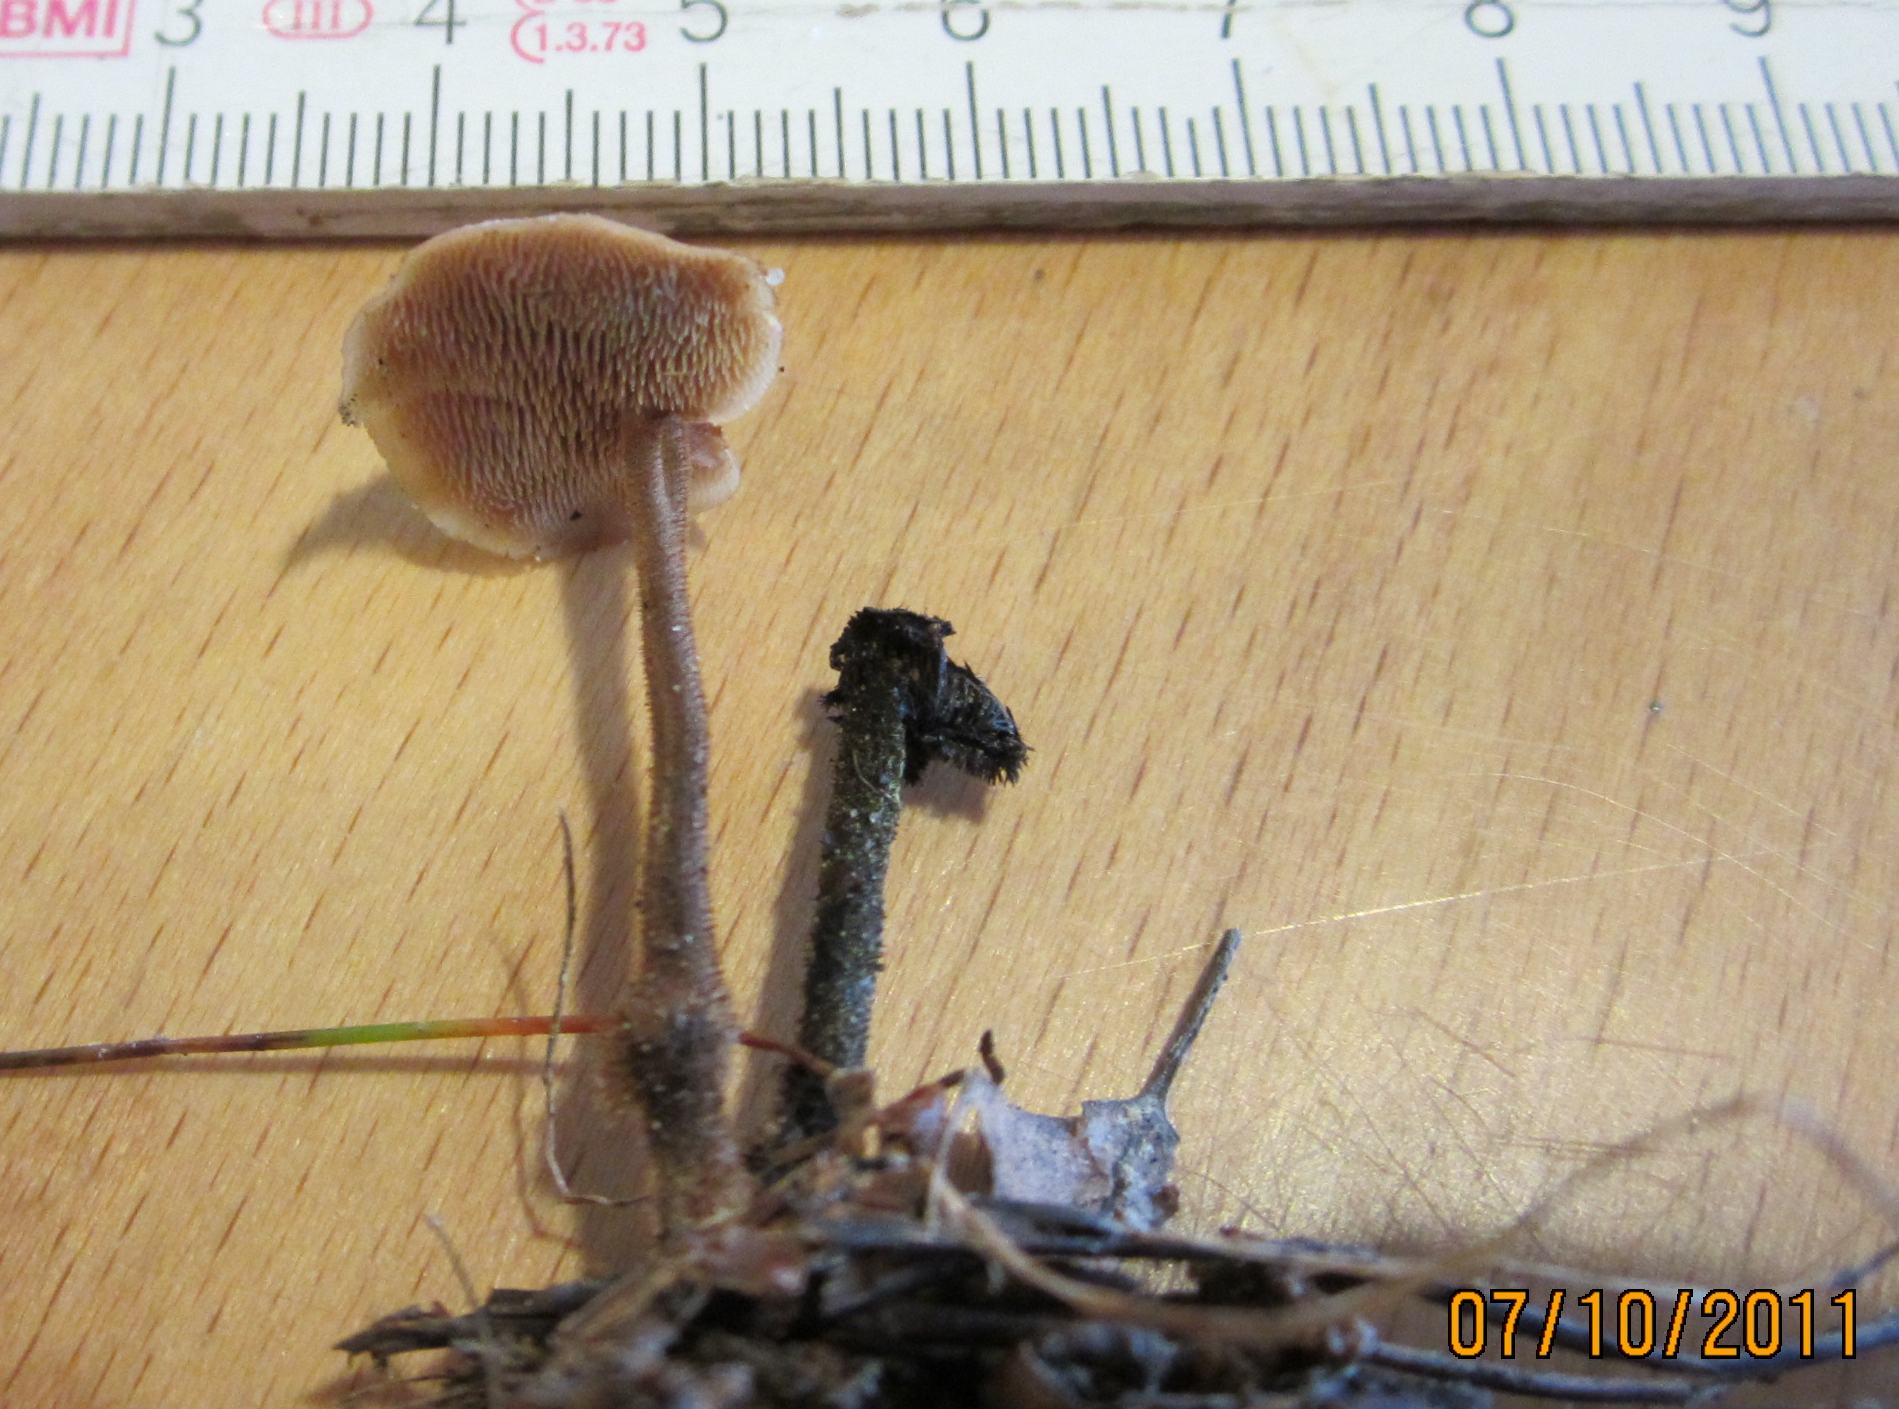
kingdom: Fungi
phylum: Basidiomycota
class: Agaricomycetes
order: Russulales
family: Auriscalpiaceae
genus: Auriscalpium
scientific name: Auriscalpium vulgare
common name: koglepigsvamp
